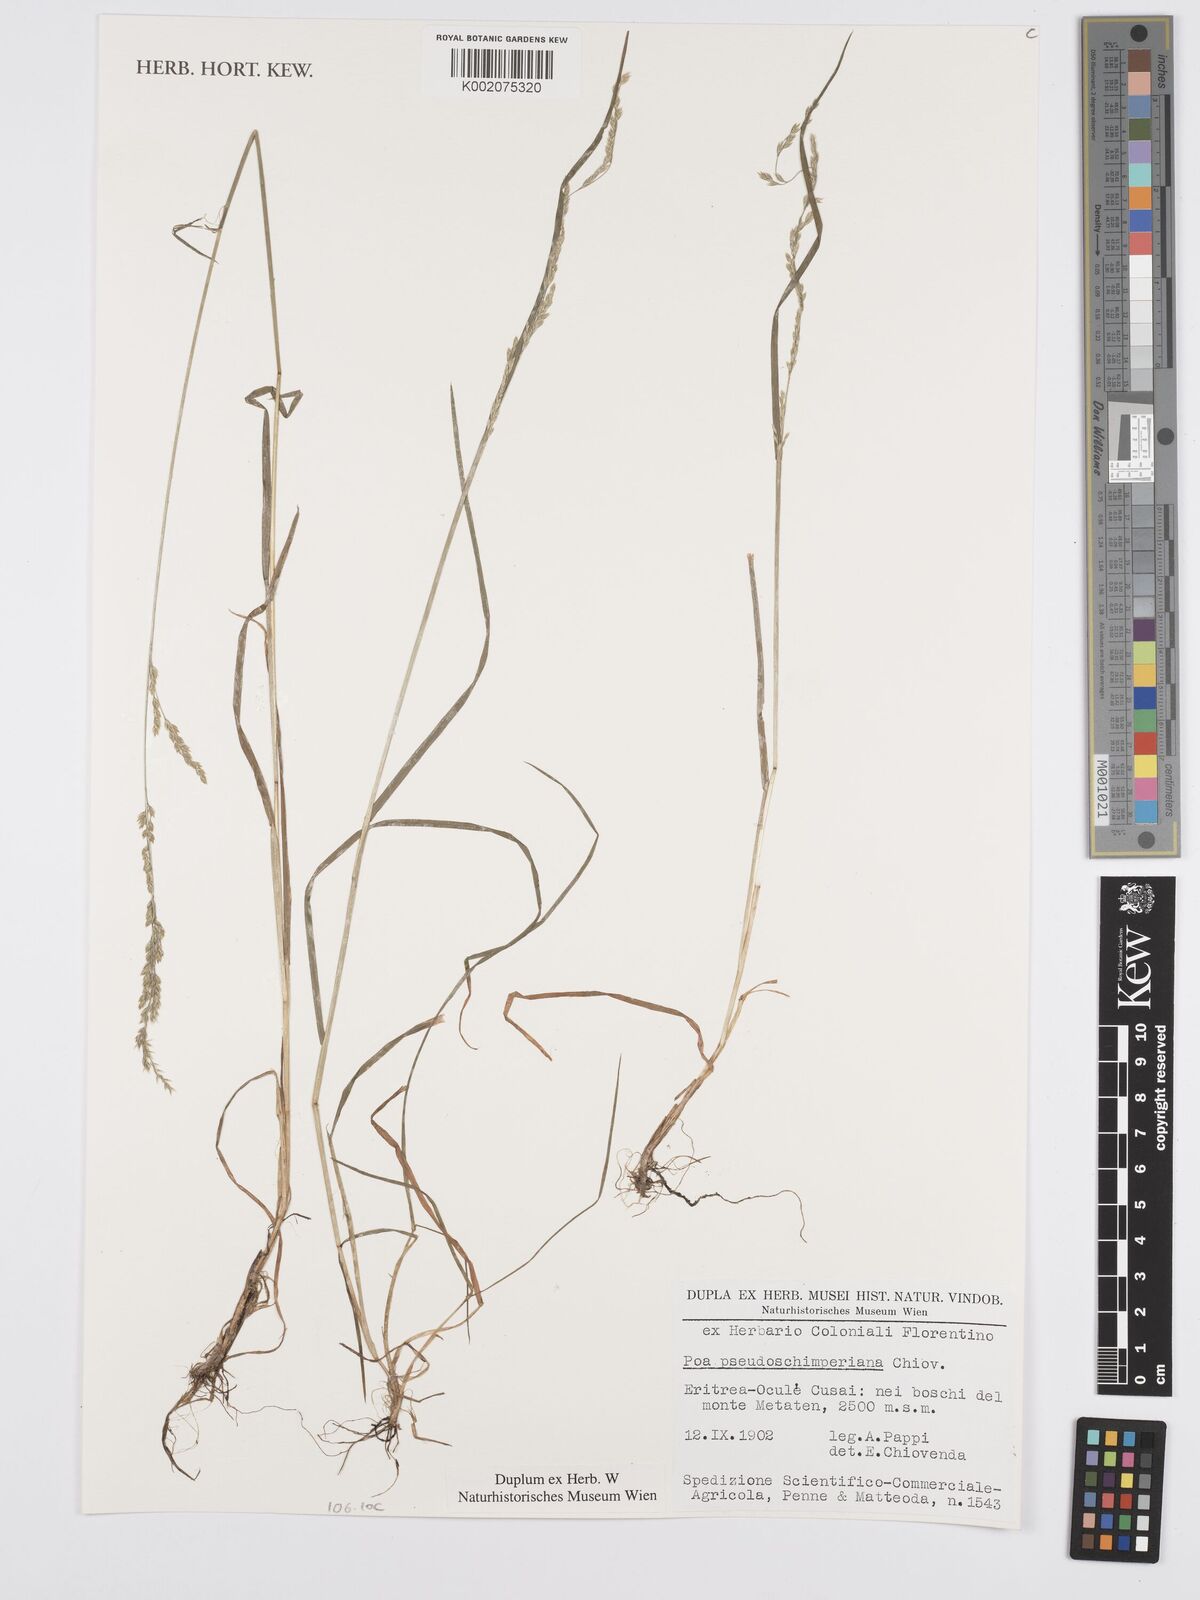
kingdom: Plantae
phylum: Tracheophyta
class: Liliopsida
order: Poales
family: Poaceae
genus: Poa
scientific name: Poa pseudoschimperiana
